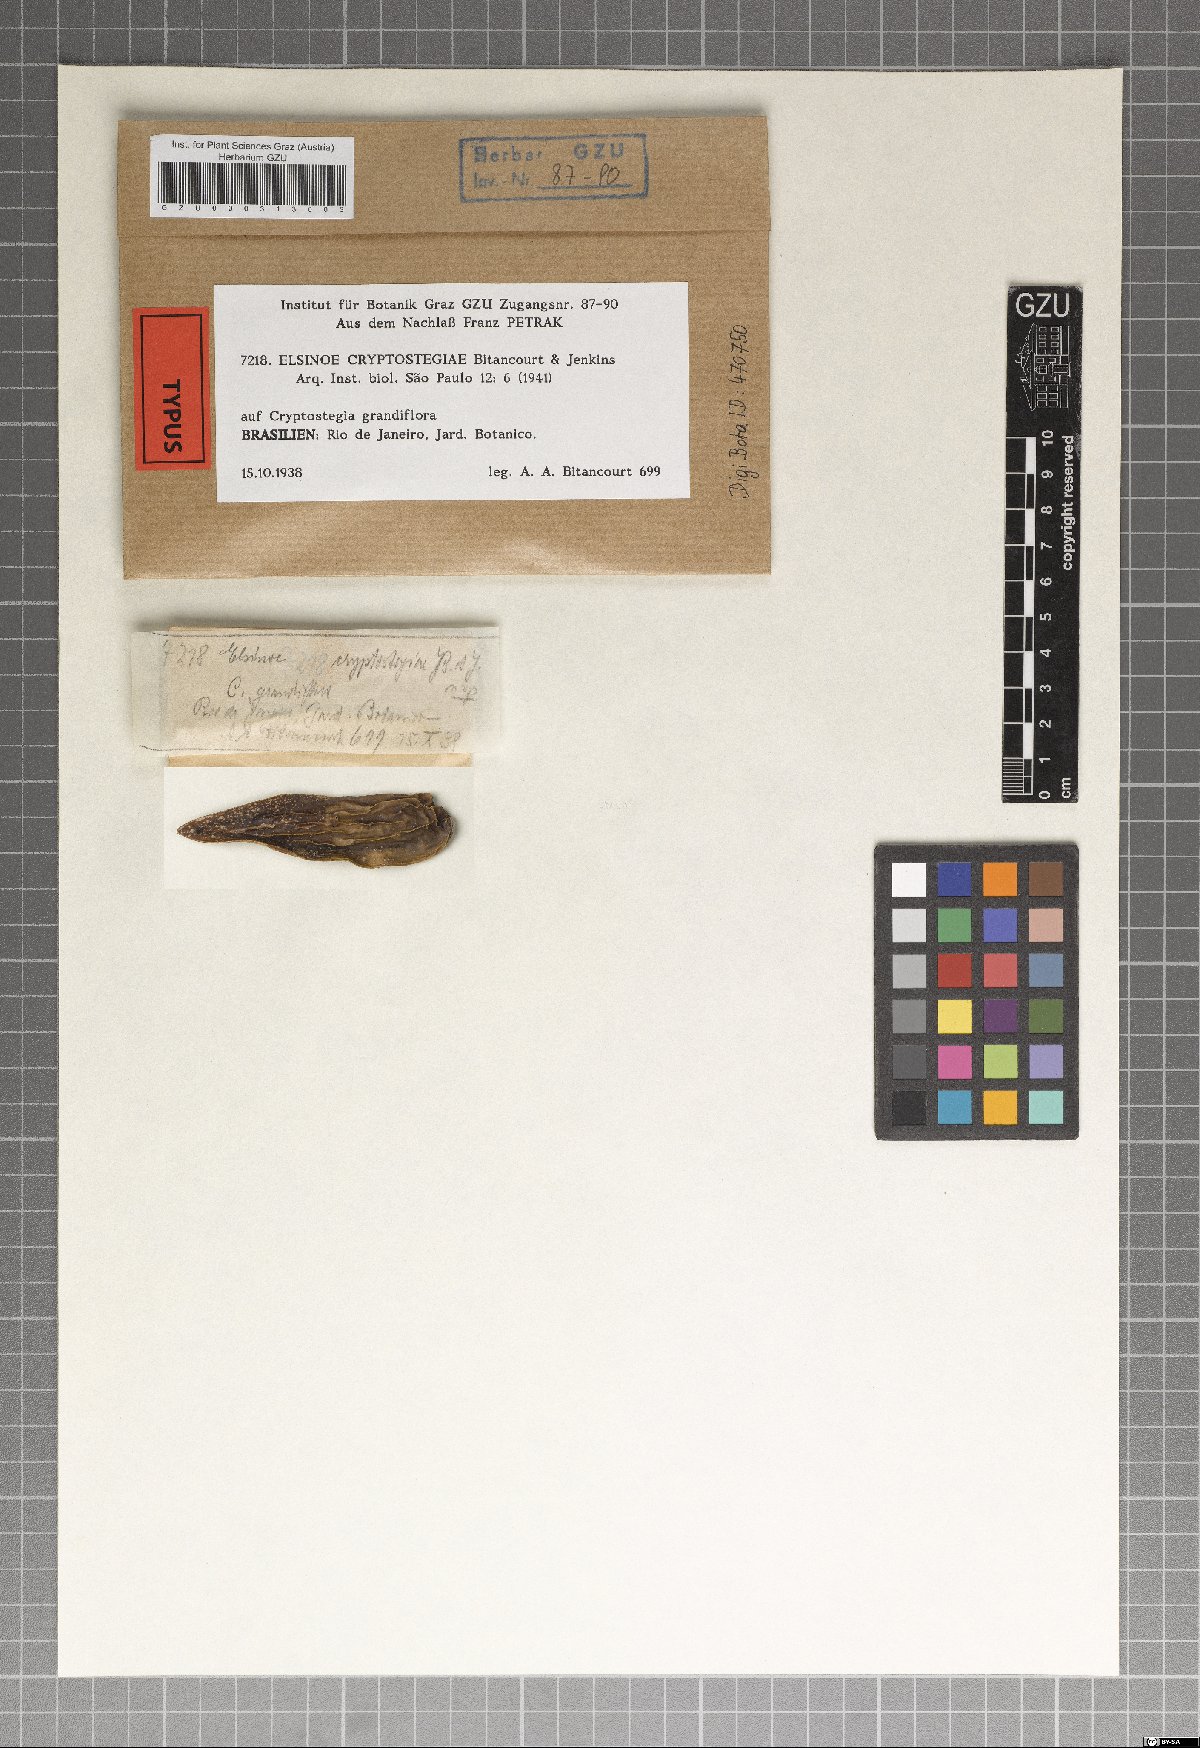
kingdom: Fungi
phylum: Ascomycota
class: Dothideomycetes
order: Myriangiales
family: Elsinoaceae
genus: Elsinoe
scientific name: Elsinoe cryptostegiae
